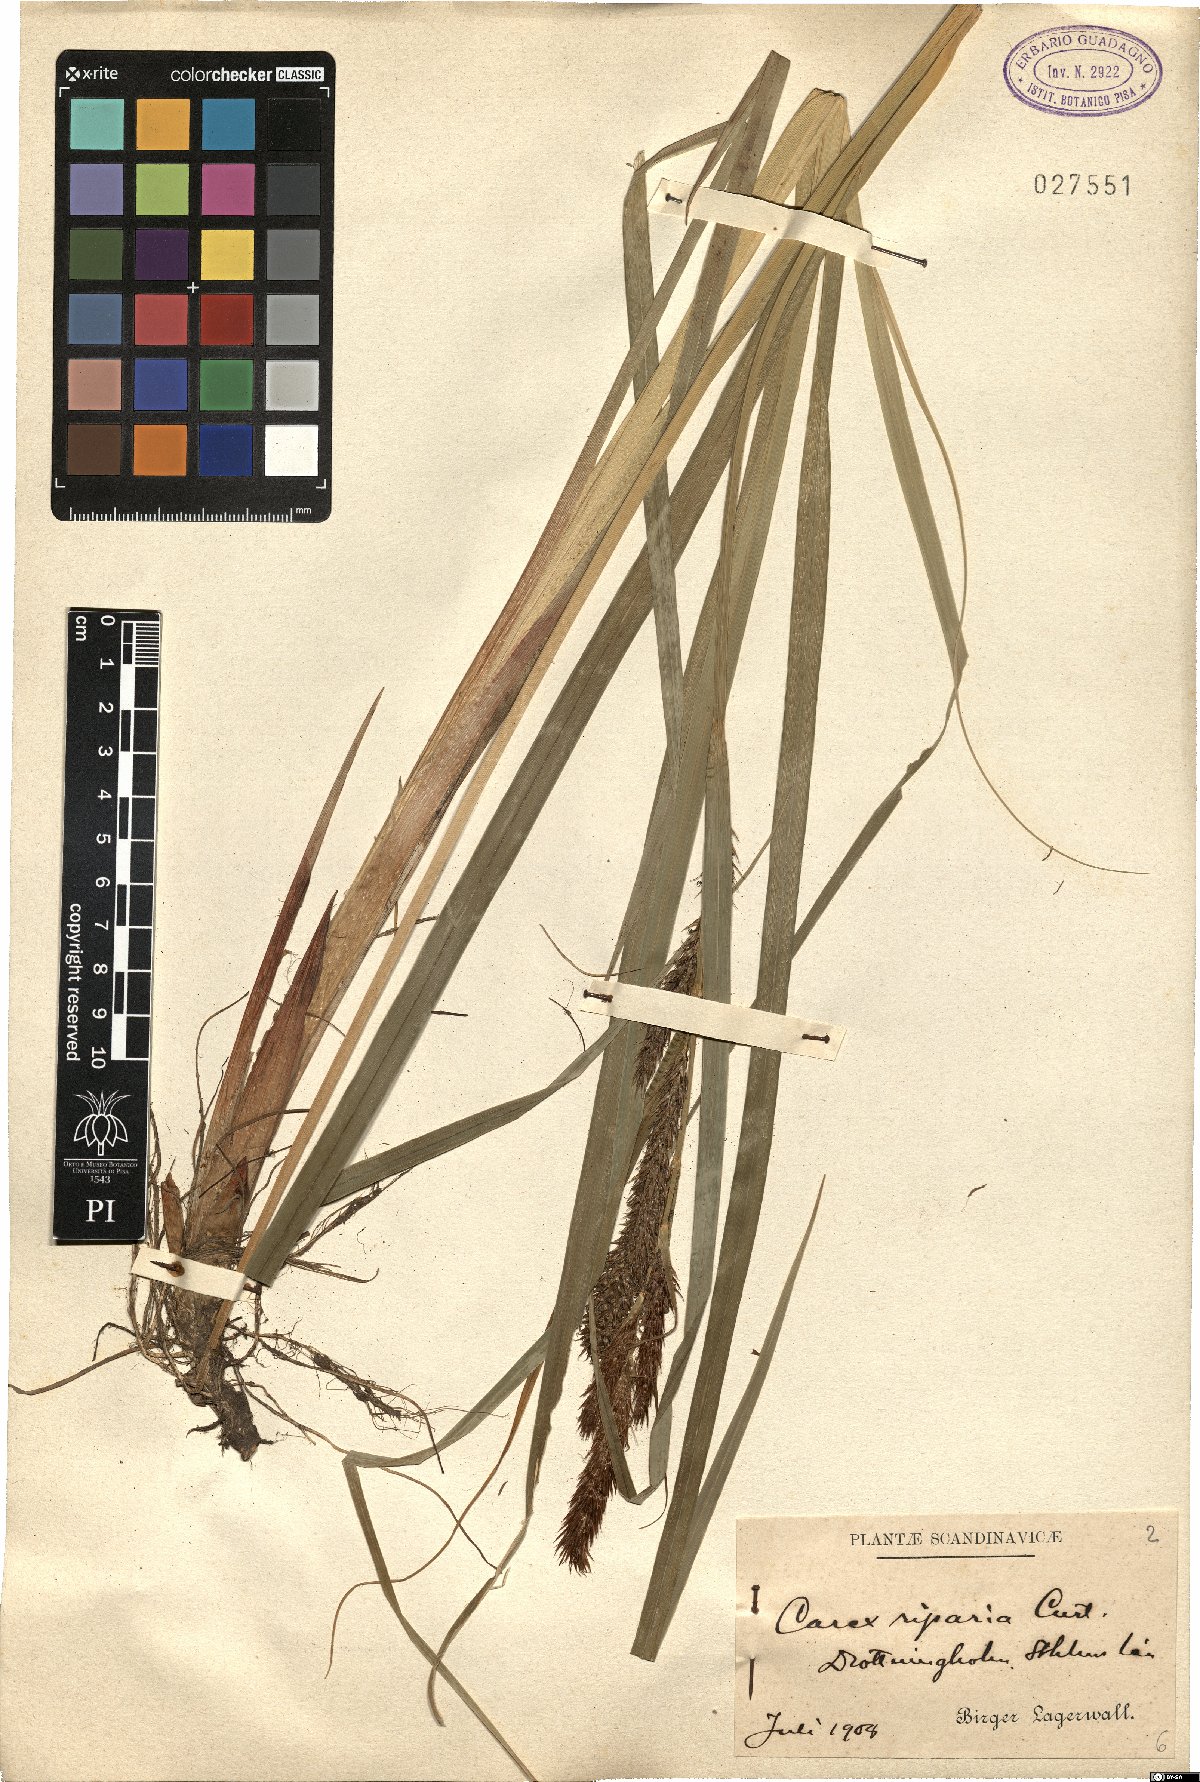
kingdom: Plantae
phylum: Tracheophyta
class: Liliopsida
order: Poales
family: Cyperaceae
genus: Carex
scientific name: Carex riparia
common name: Greater pond-sedge
